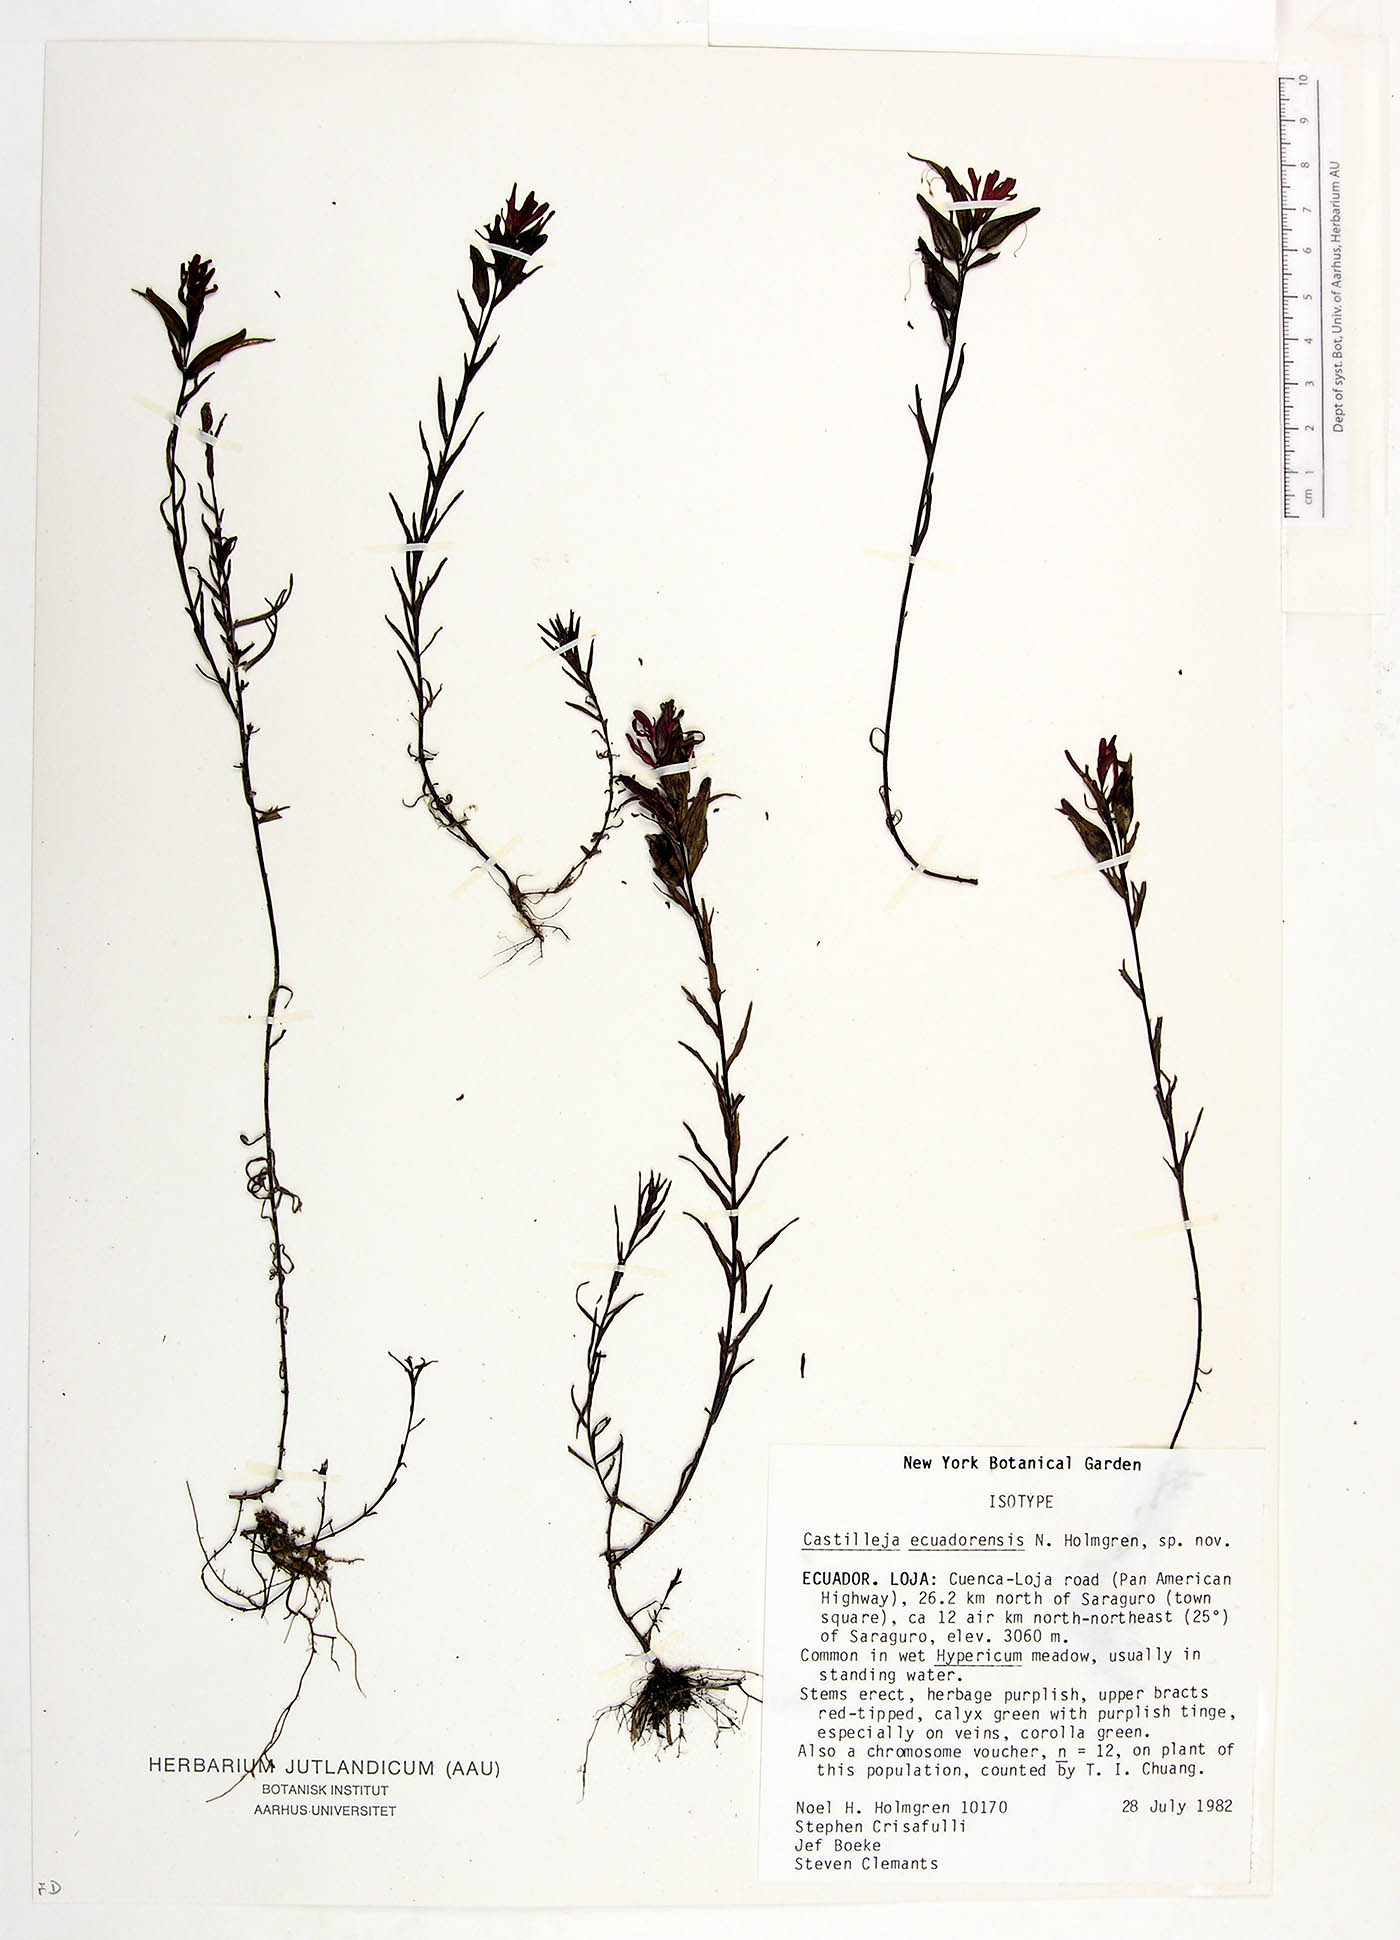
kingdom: Plantae
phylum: Tracheophyta
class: Magnoliopsida
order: Lamiales
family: Orobanchaceae
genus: Castilleja
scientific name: Castilleja ecuadorensis
